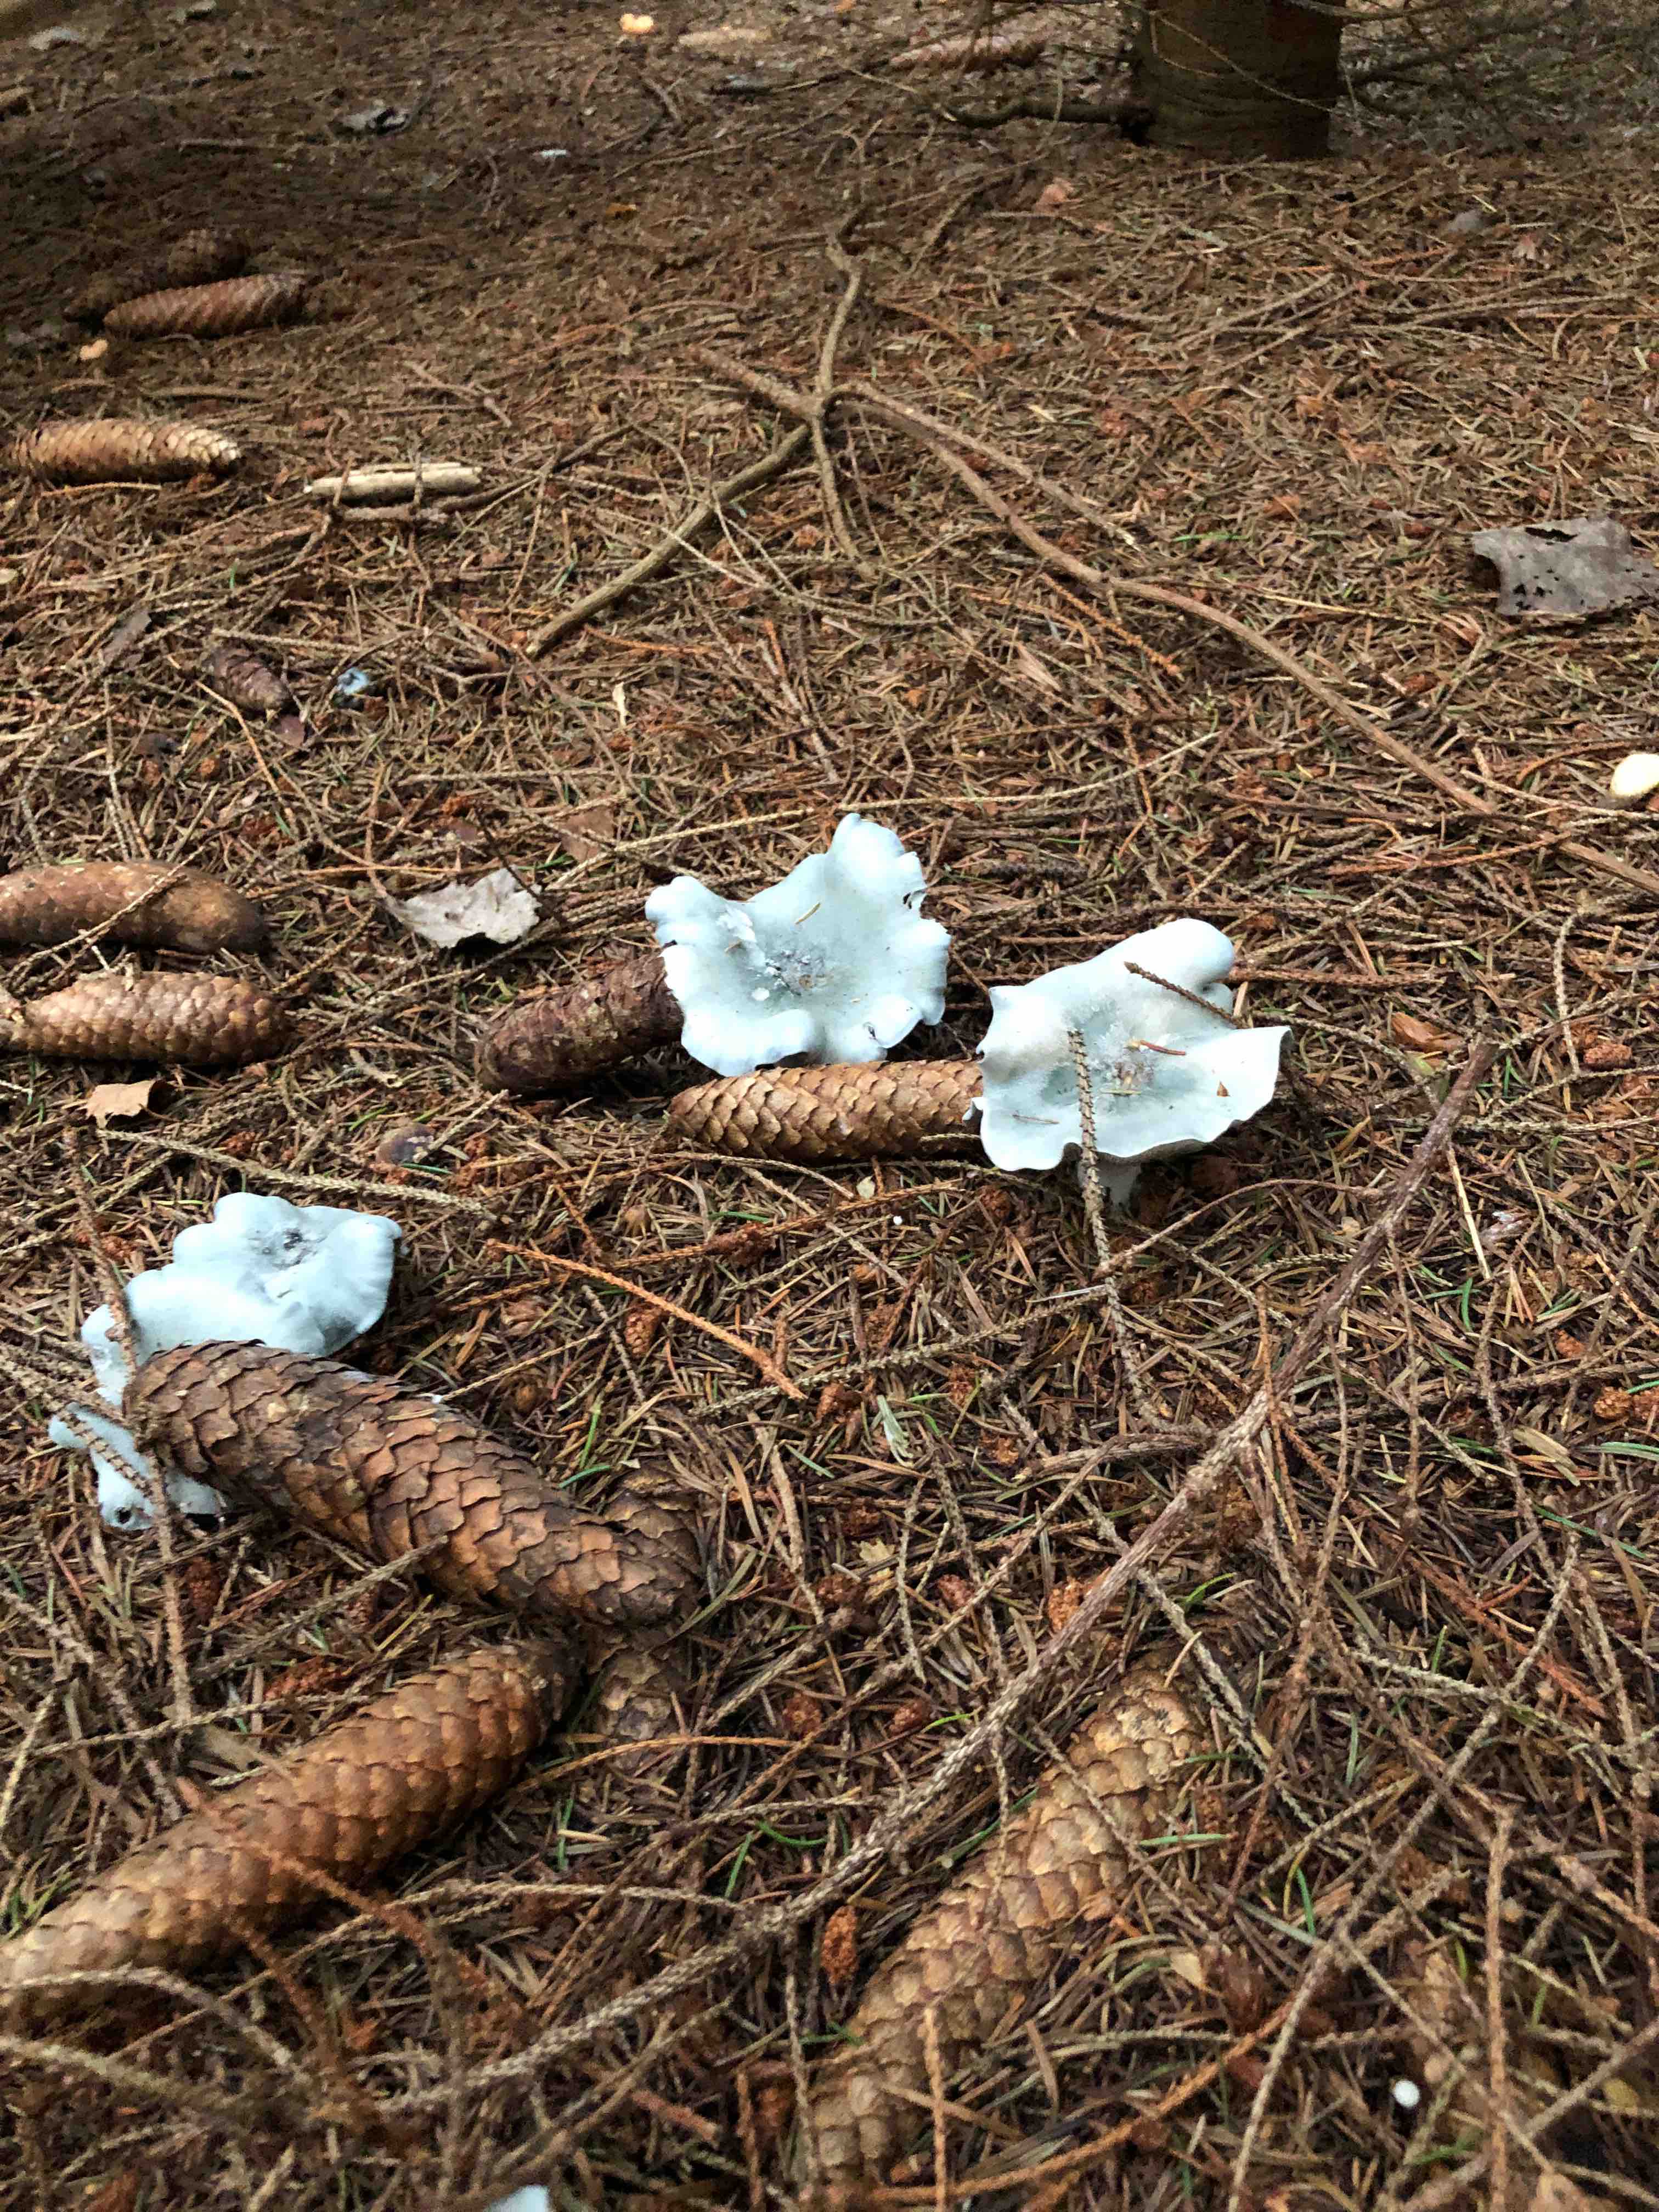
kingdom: Fungi
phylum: Basidiomycota
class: Agaricomycetes
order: Agaricales
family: Tricholomataceae
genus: Clitocybe
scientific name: Clitocybe odora
